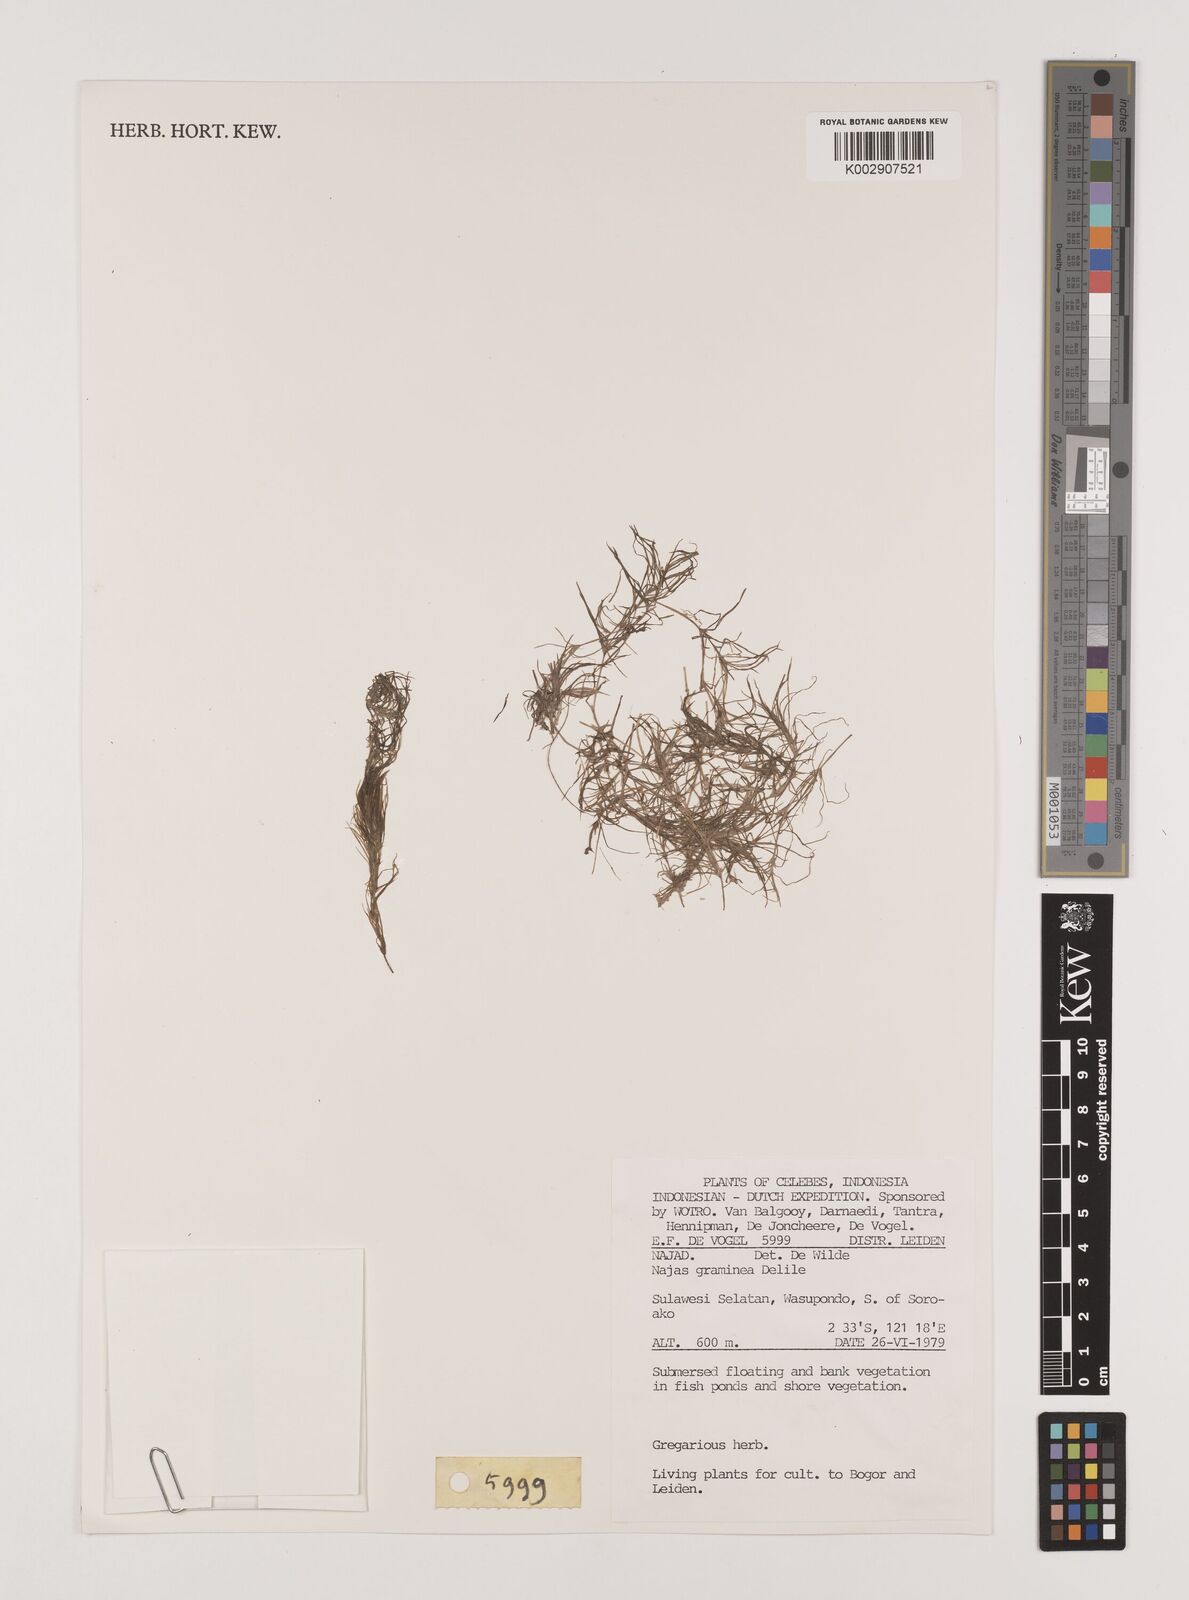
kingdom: Plantae
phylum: Tracheophyta
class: Liliopsida
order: Alismatales
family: Hydrocharitaceae
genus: Najas
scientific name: Najas graminea
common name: Ricefield waternymph
